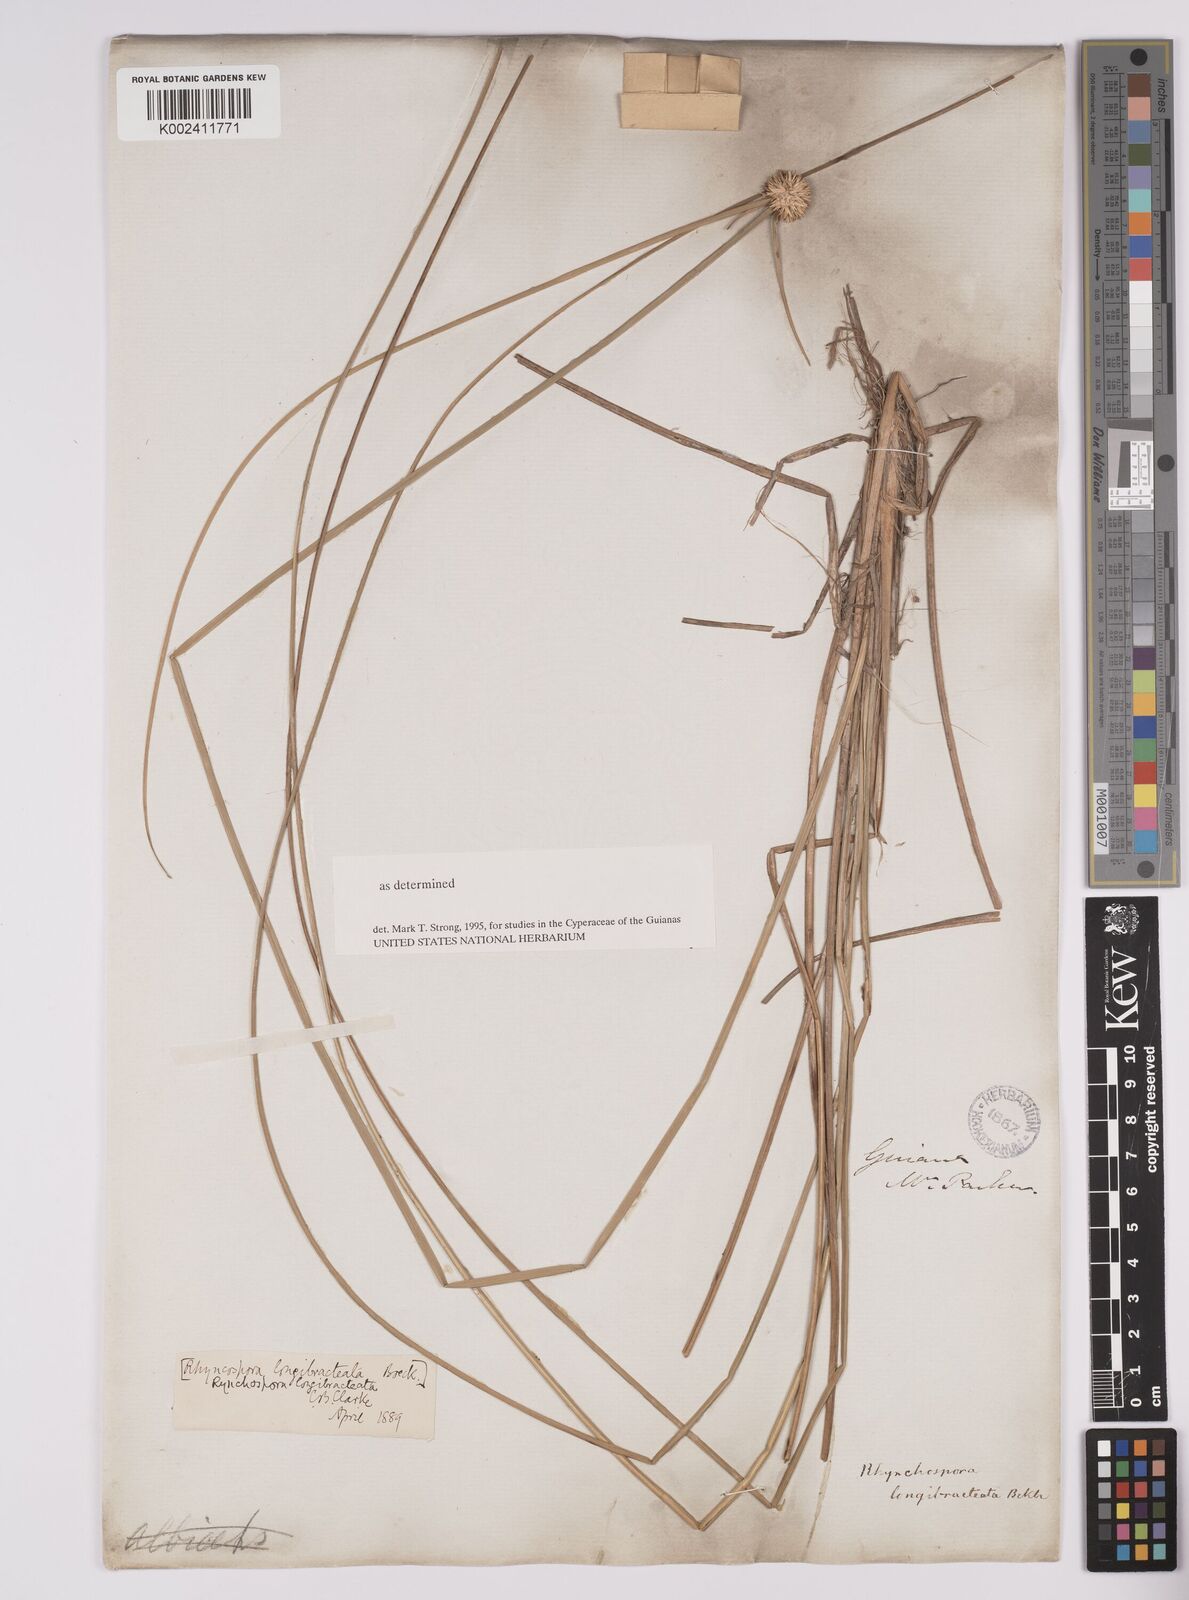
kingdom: Plantae
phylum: Tracheophyta
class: Liliopsida
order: Poales
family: Cyperaceae
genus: Rhynchospora
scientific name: Rhynchospora longibracteata
